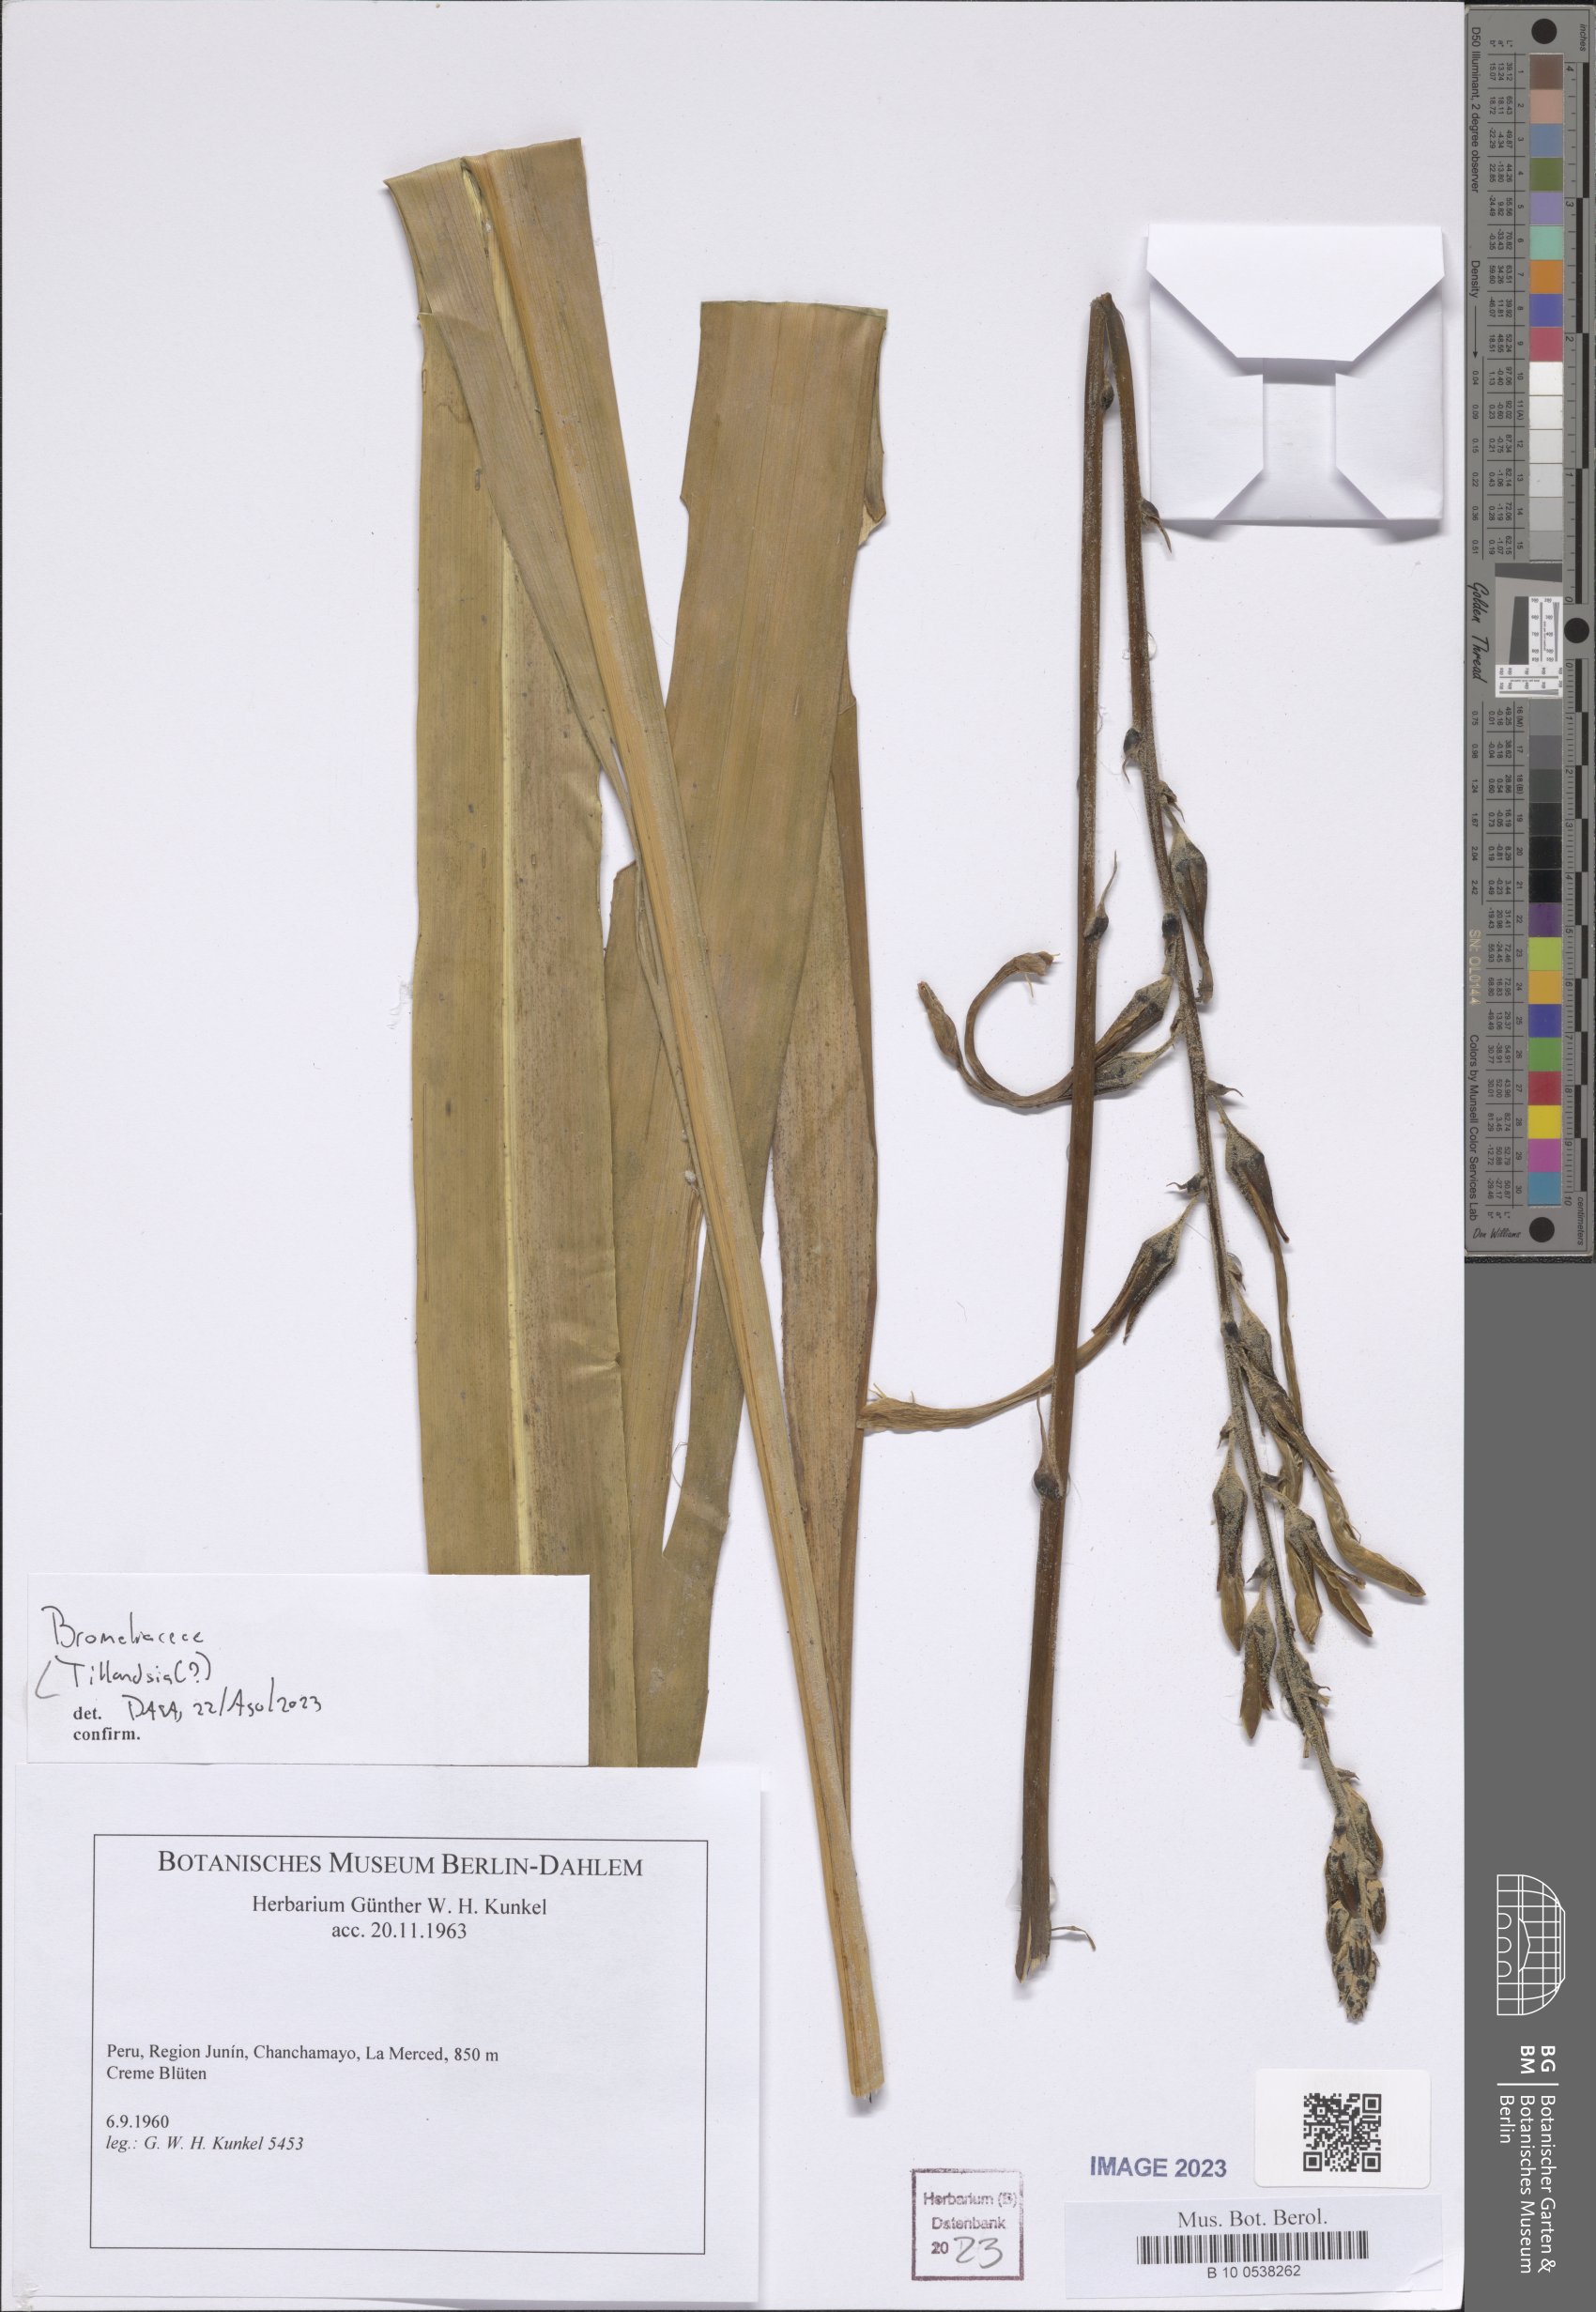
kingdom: Plantae
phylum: Tracheophyta
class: Liliopsida
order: Poales
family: Bromeliaceae
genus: Tillandsia
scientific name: Tillandsia
